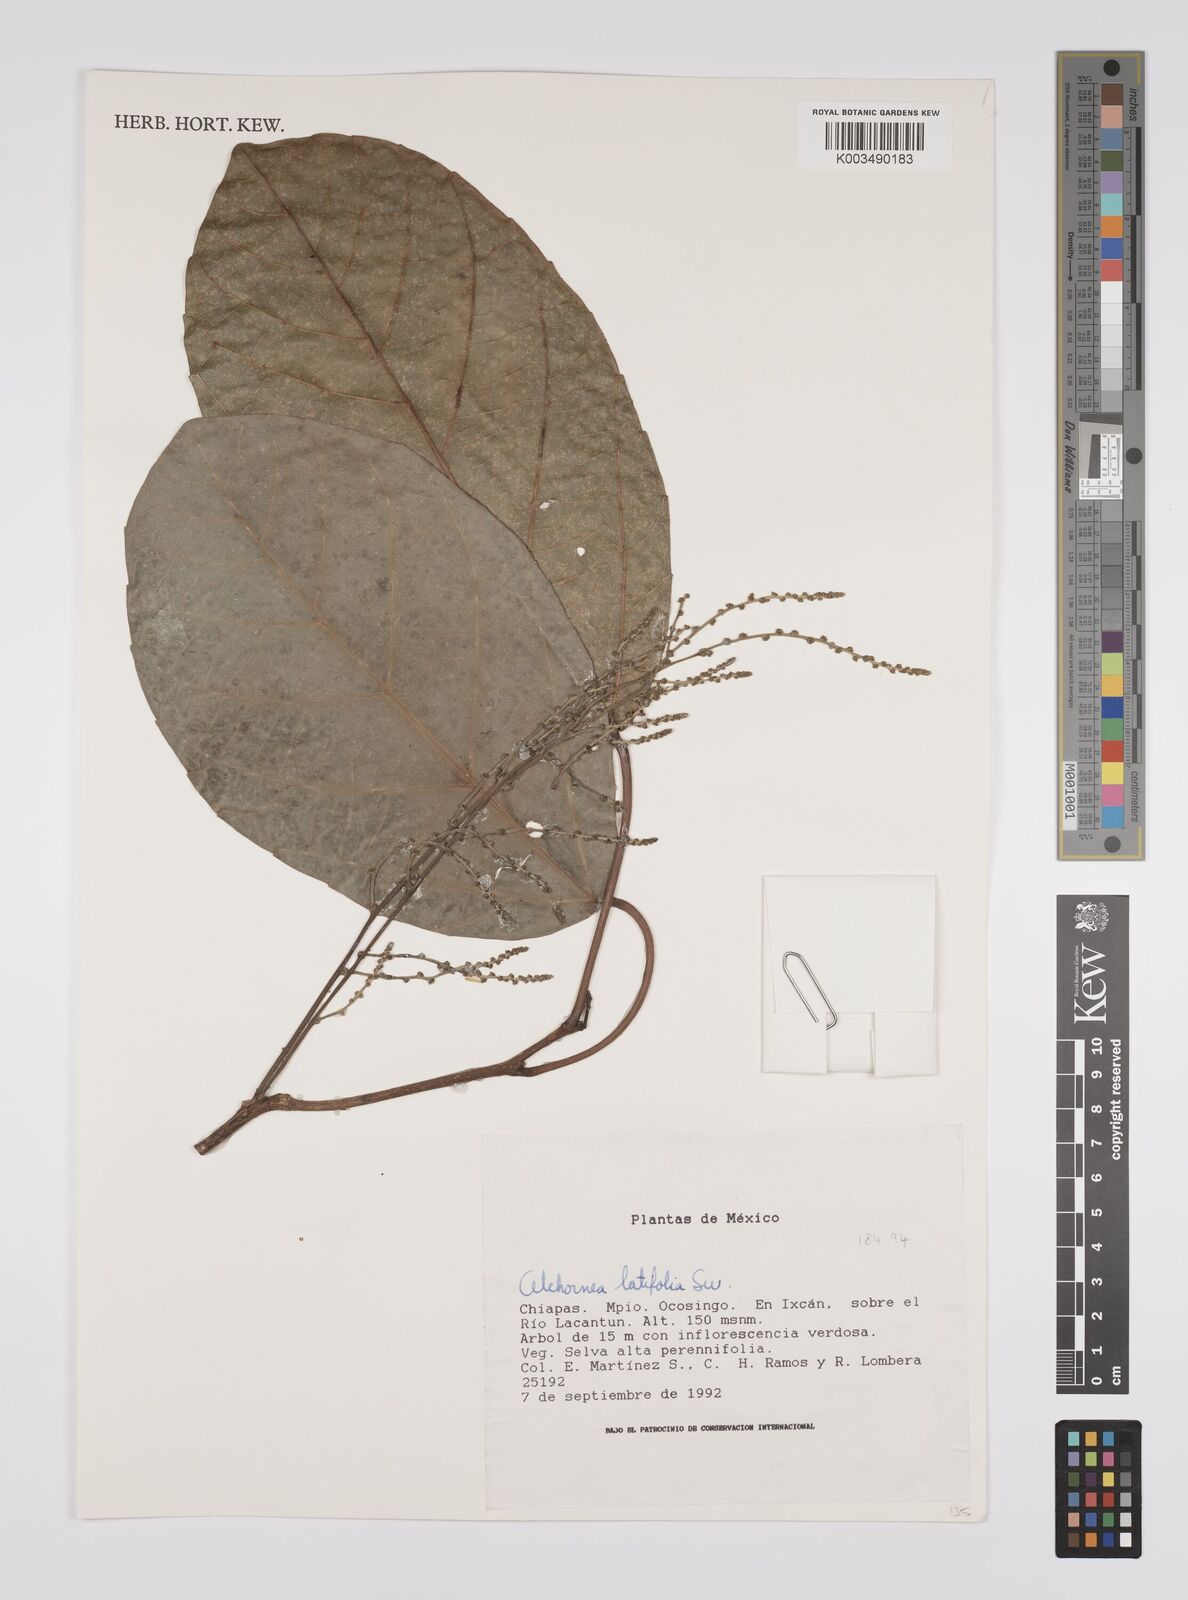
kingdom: Plantae
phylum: Tracheophyta
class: Magnoliopsida
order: Malpighiales
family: Euphorbiaceae
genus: Alchornea
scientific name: Alchornea latifolia
